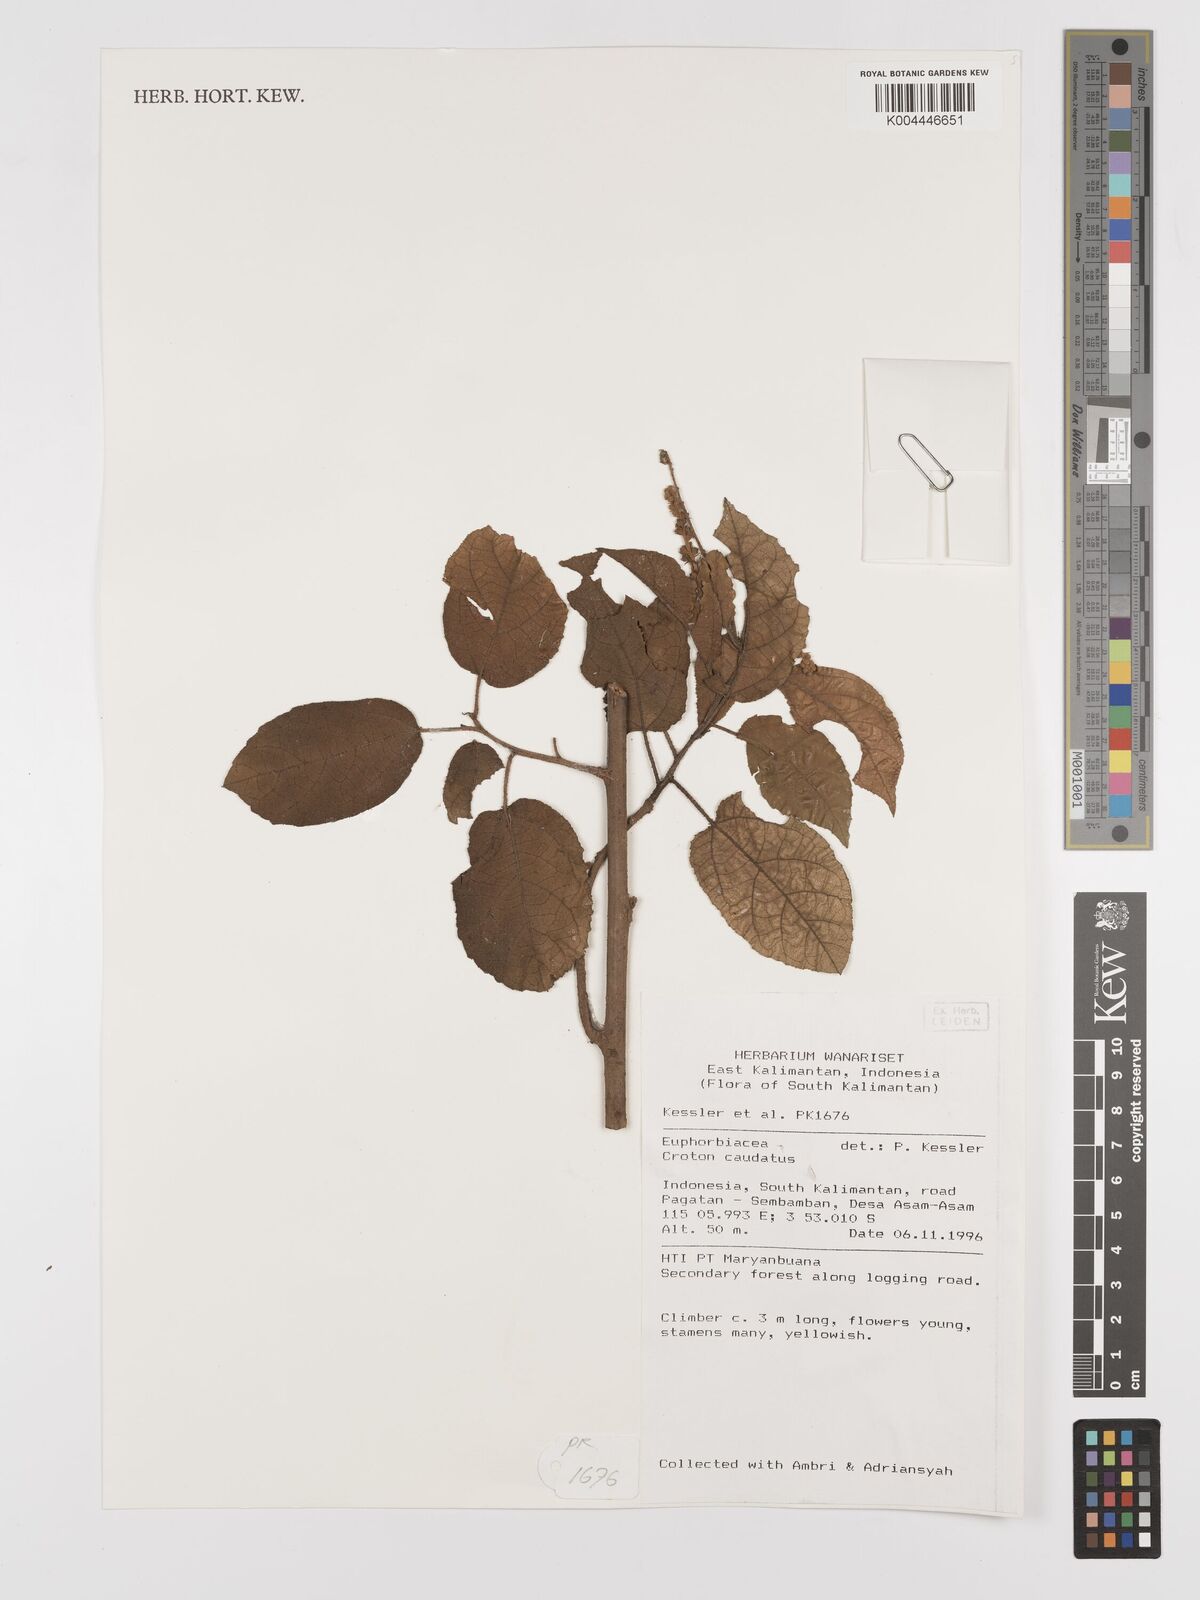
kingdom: Plantae
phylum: Tracheophyta
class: Magnoliopsida
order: Malpighiales
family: Euphorbiaceae
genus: Croton
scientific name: Croton caudatus
